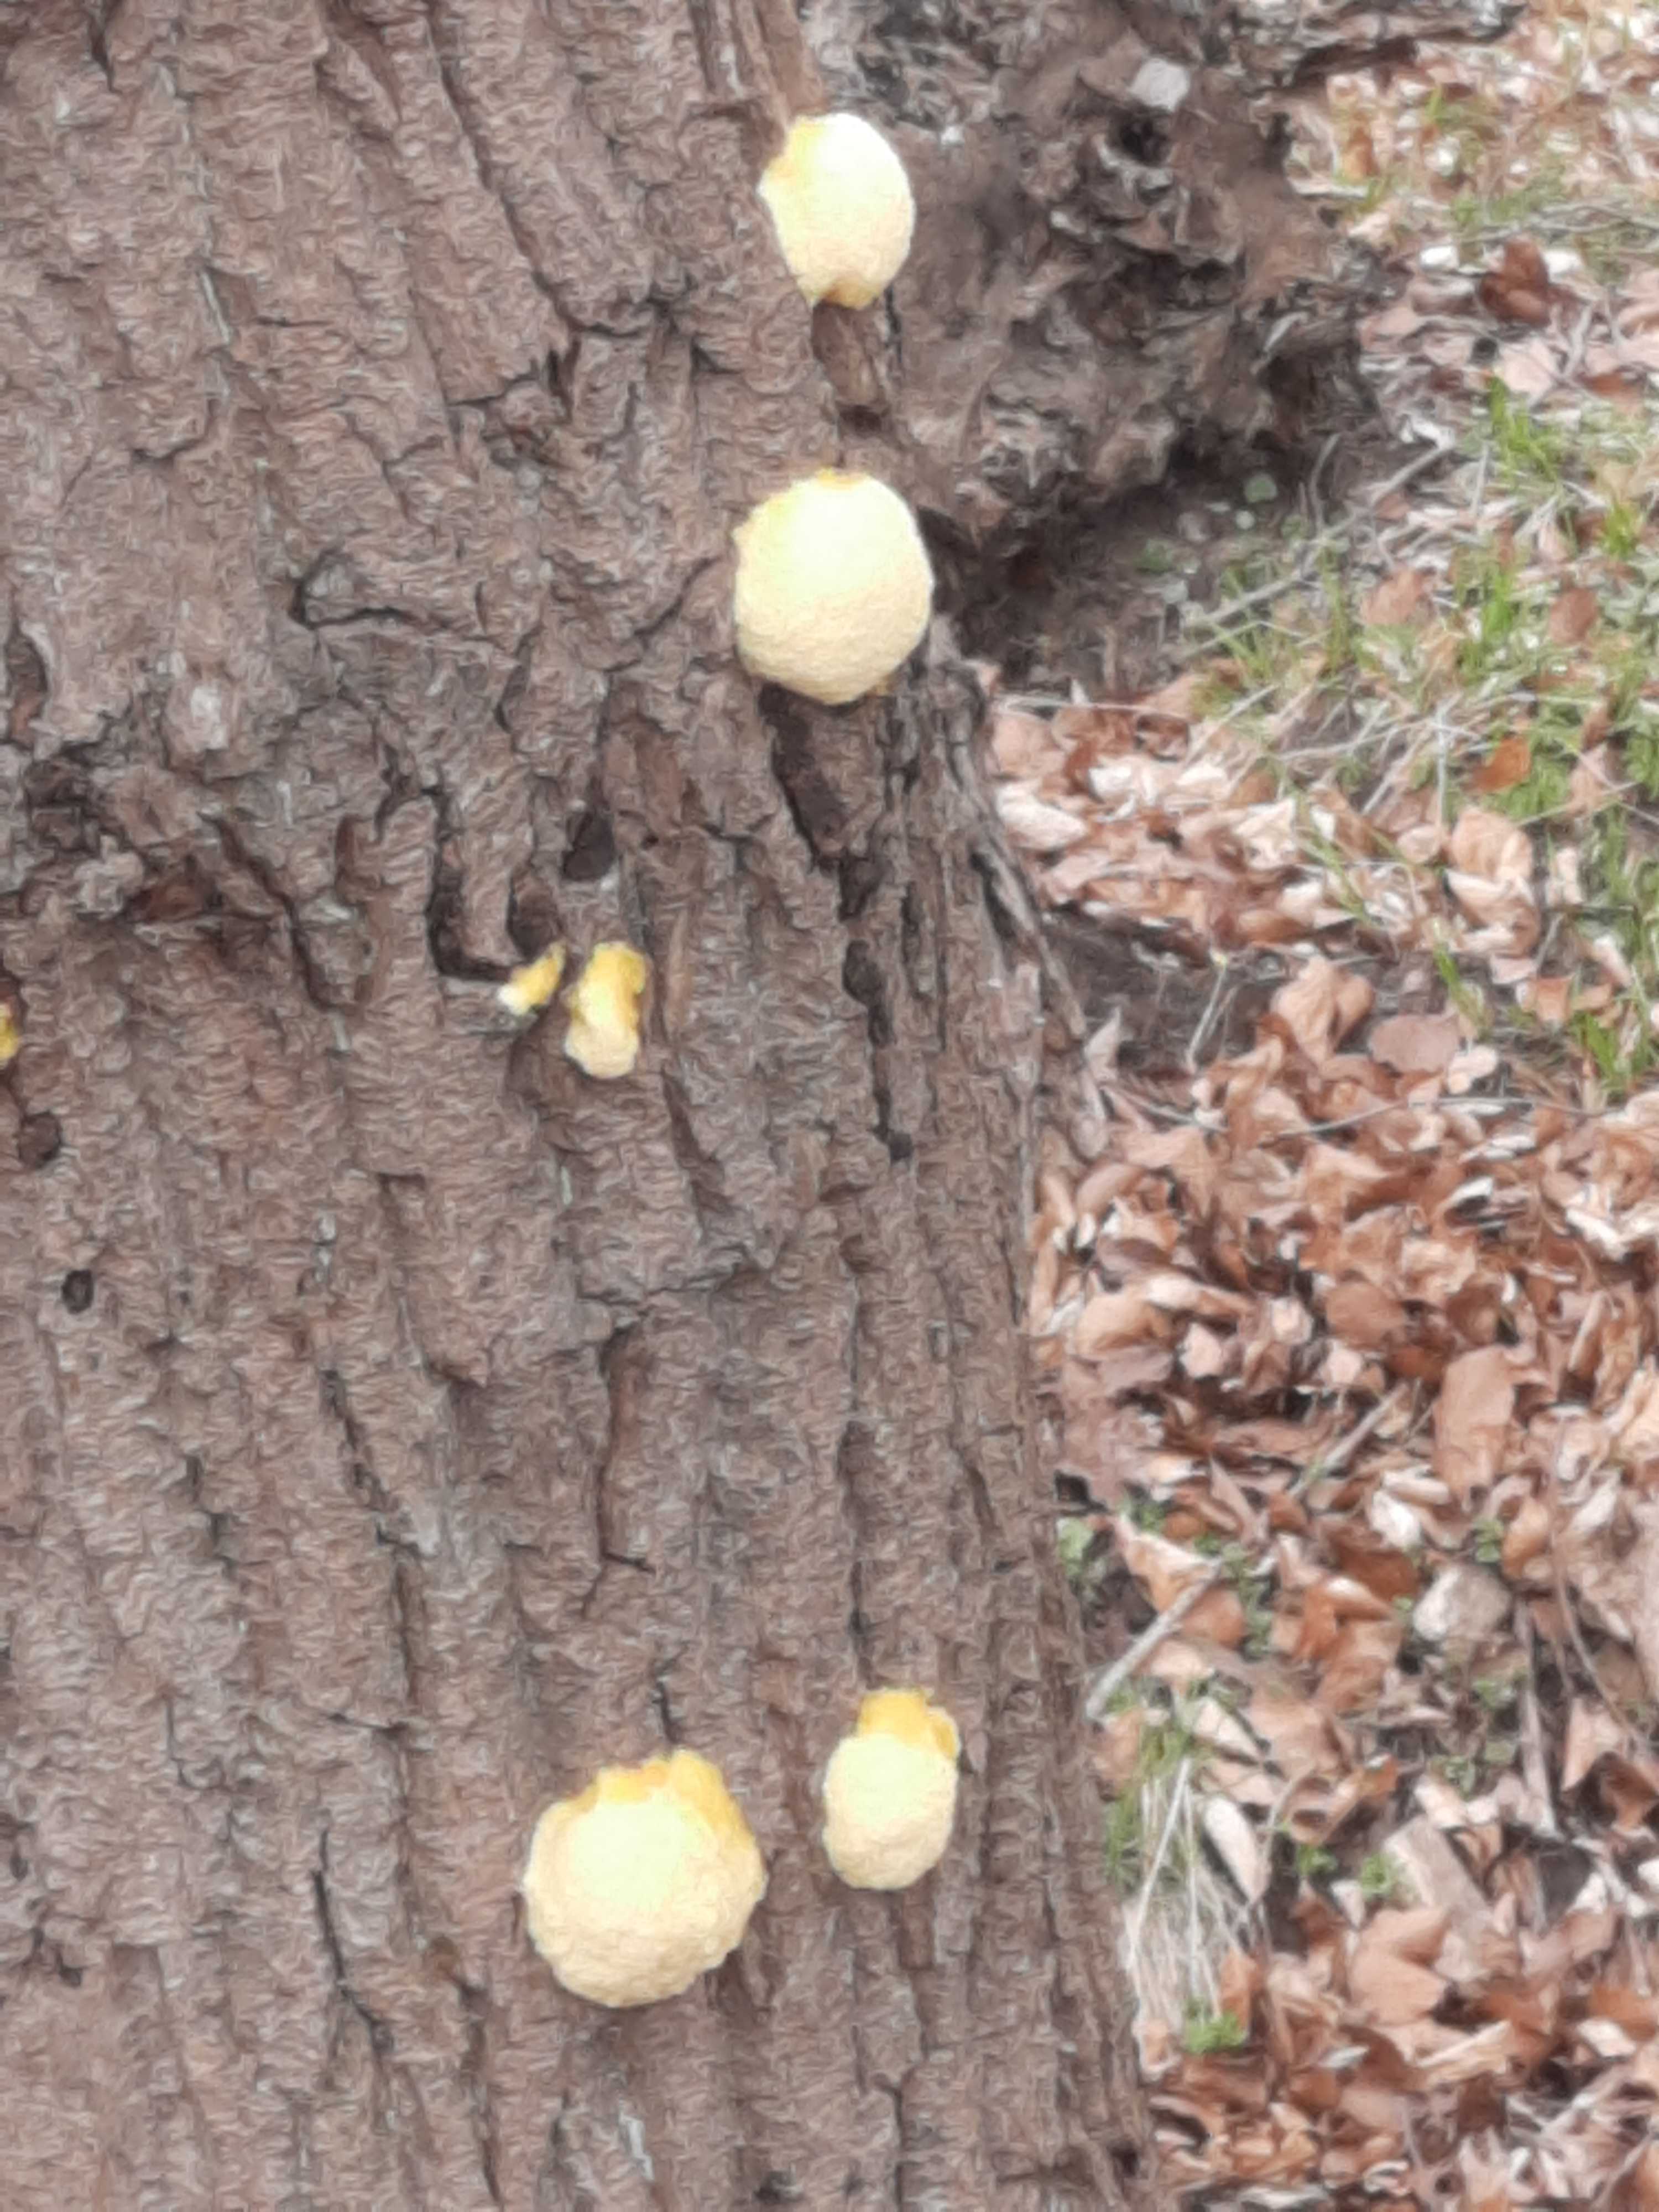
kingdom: Protozoa
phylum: Mycetozoa
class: Myxomycetes
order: Cribrariales
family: Tubiferaceae
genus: Reticularia
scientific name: Reticularia lycoperdon
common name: skinnende støvpude
